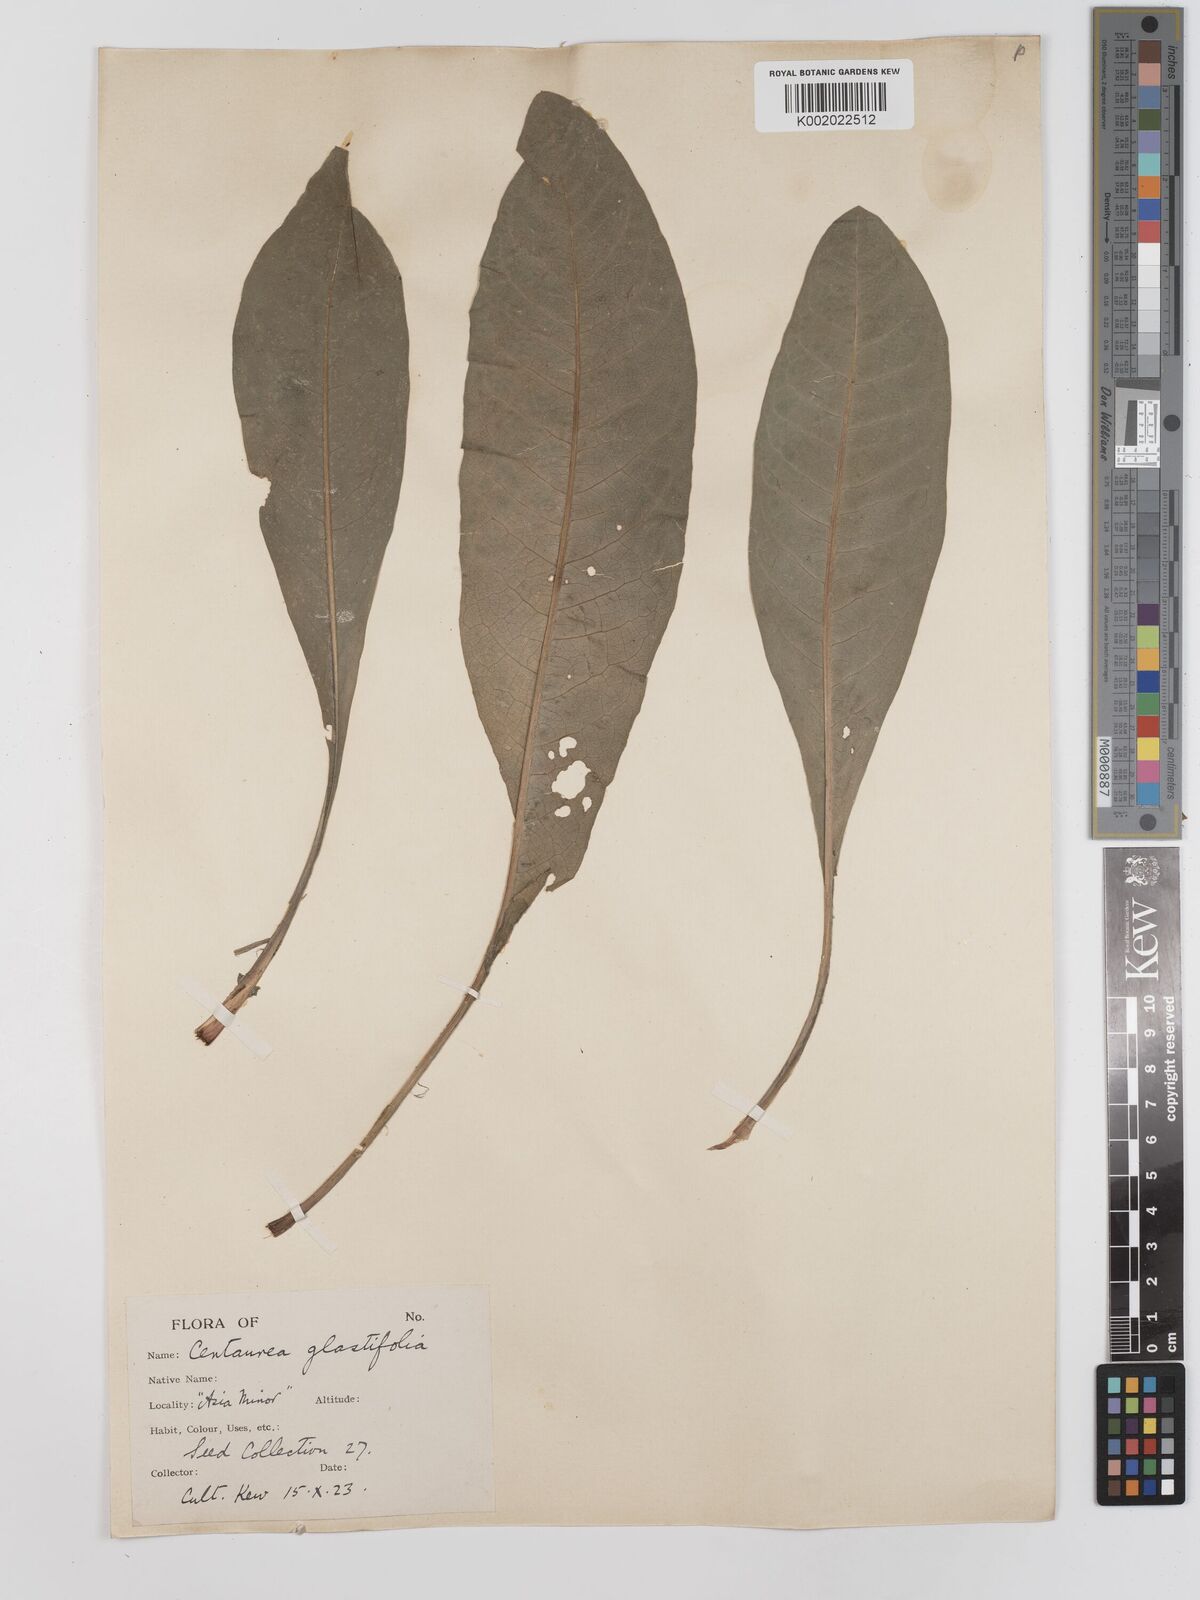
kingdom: Plantae
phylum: Tracheophyta
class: Magnoliopsida
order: Asterales
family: Asteraceae
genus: Centaurea
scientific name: Centaurea glastifolia
